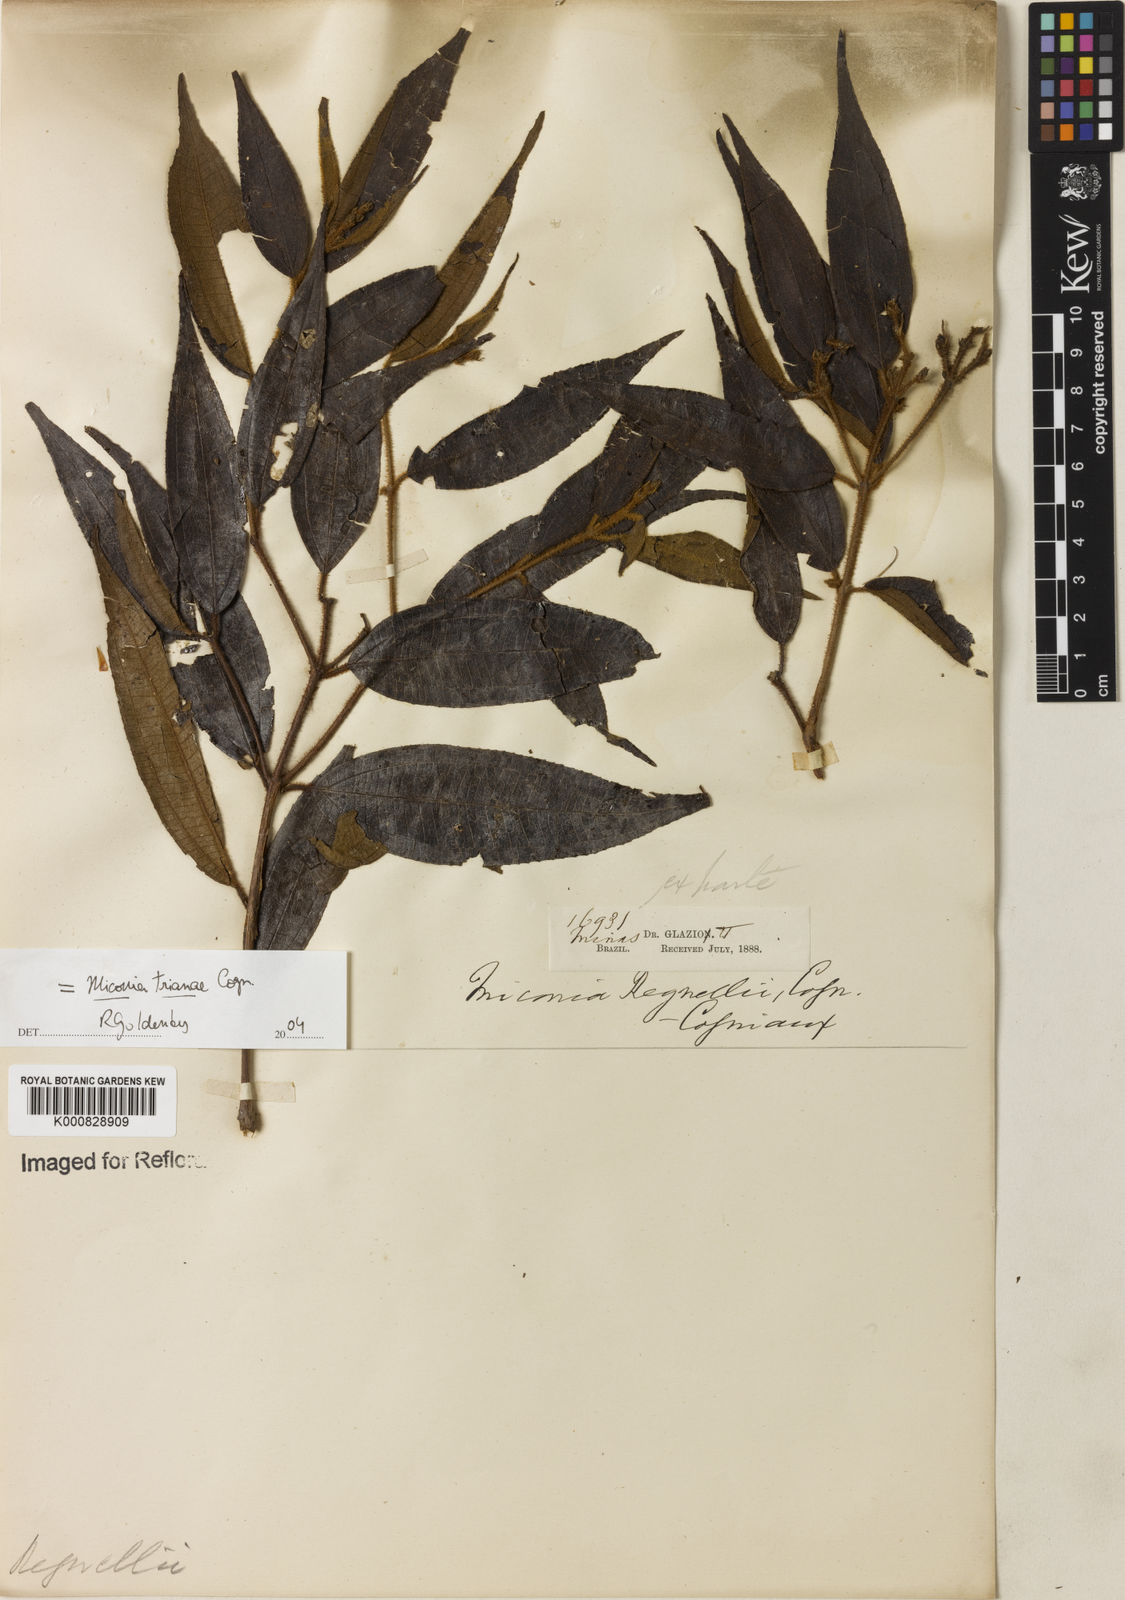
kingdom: Plantae
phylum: Tracheophyta
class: Magnoliopsida
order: Myrtales
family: Melastomataceae
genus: Miconia
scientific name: Miconia trianae
